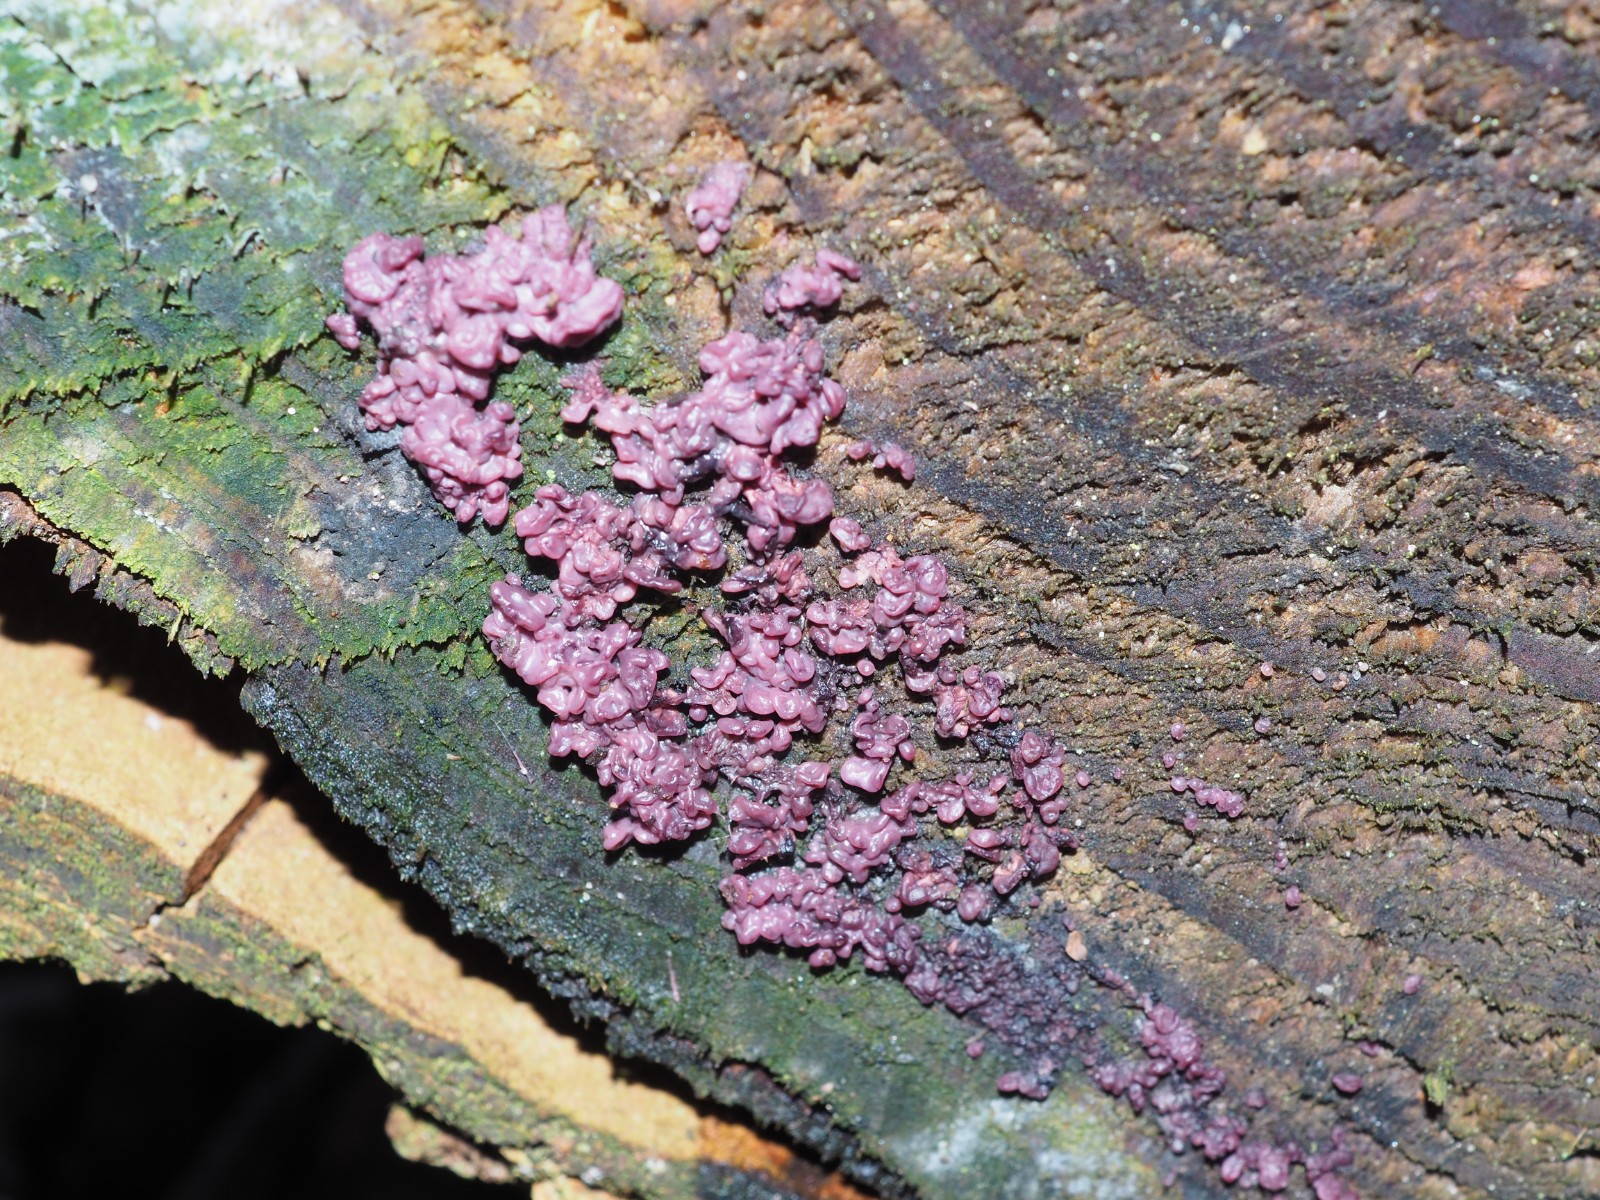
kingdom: Fungi
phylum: Ascomycota
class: Leotiomycetes
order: Helotiales
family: Gelatinodiscaceae
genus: Ascocoryne
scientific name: Ascocoryne sarcoides
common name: rødlilla sejskive
